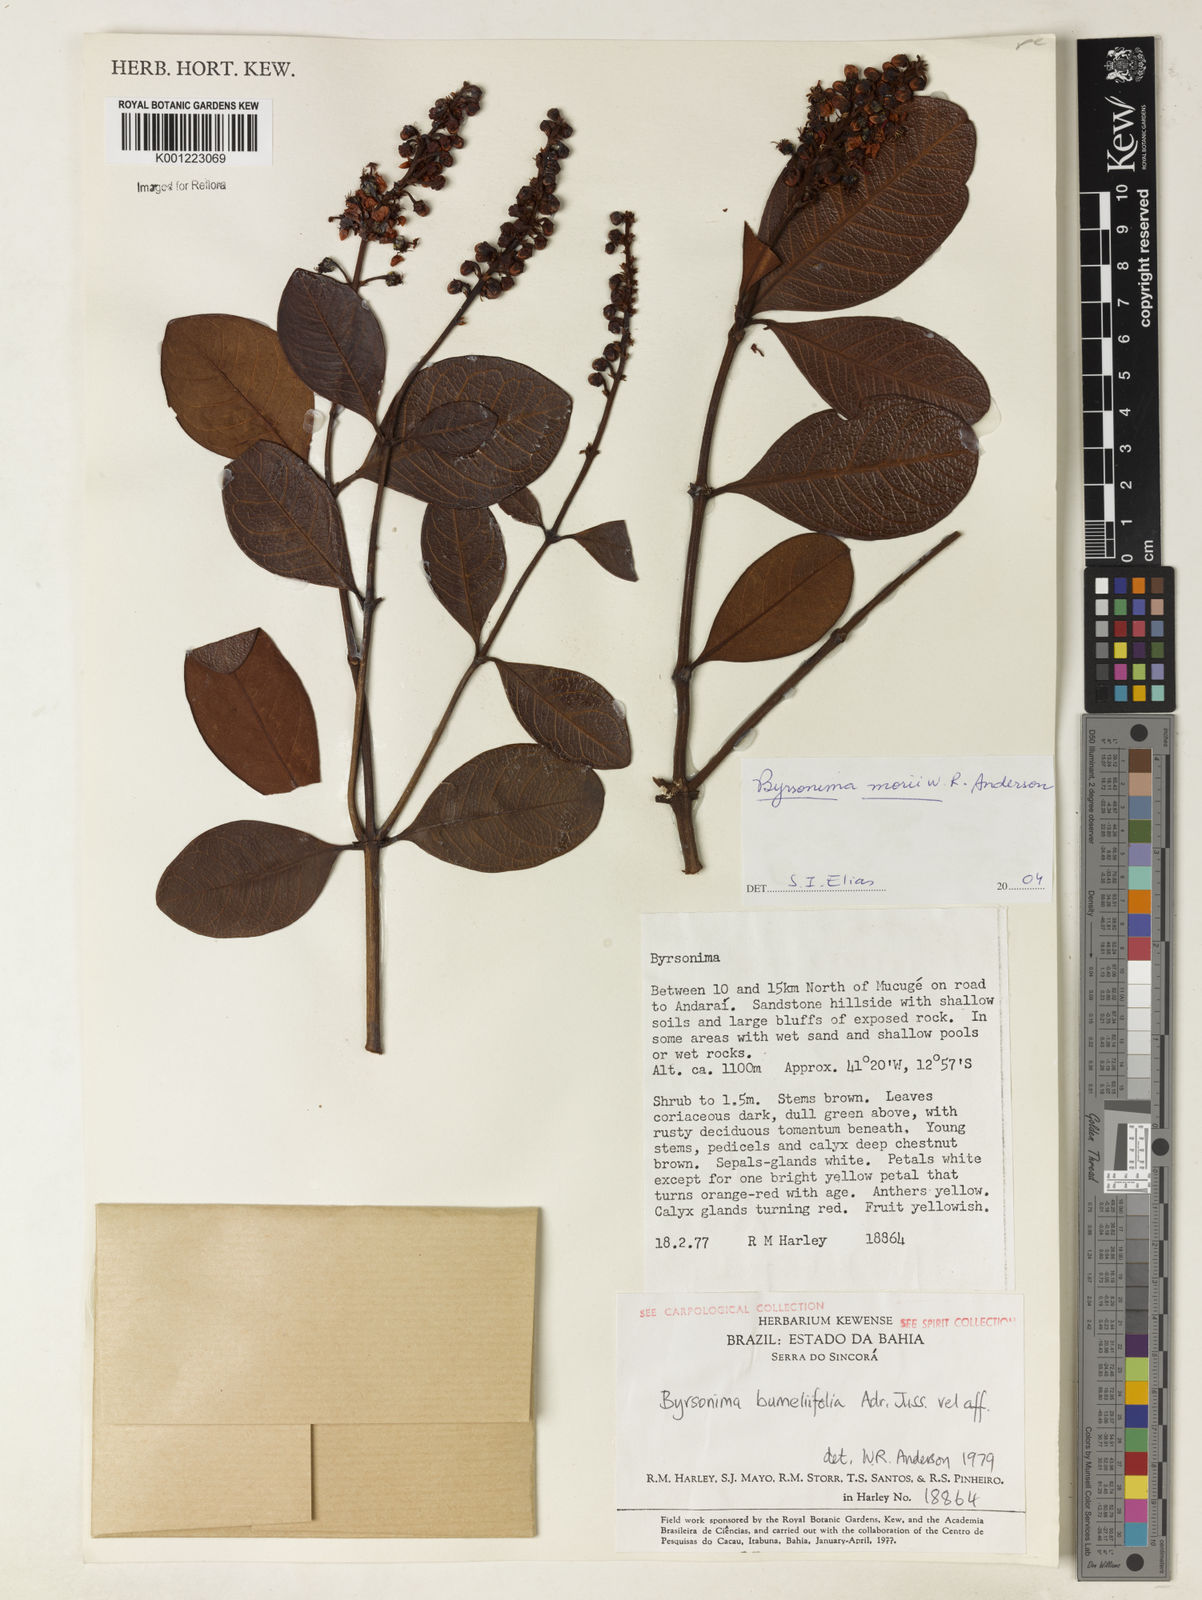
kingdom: Plantae
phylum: Tracheophyta
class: Magnoliopsida
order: Malpighiales
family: Malpighiaceae
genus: Byrsonima
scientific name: Byrsonima morii
